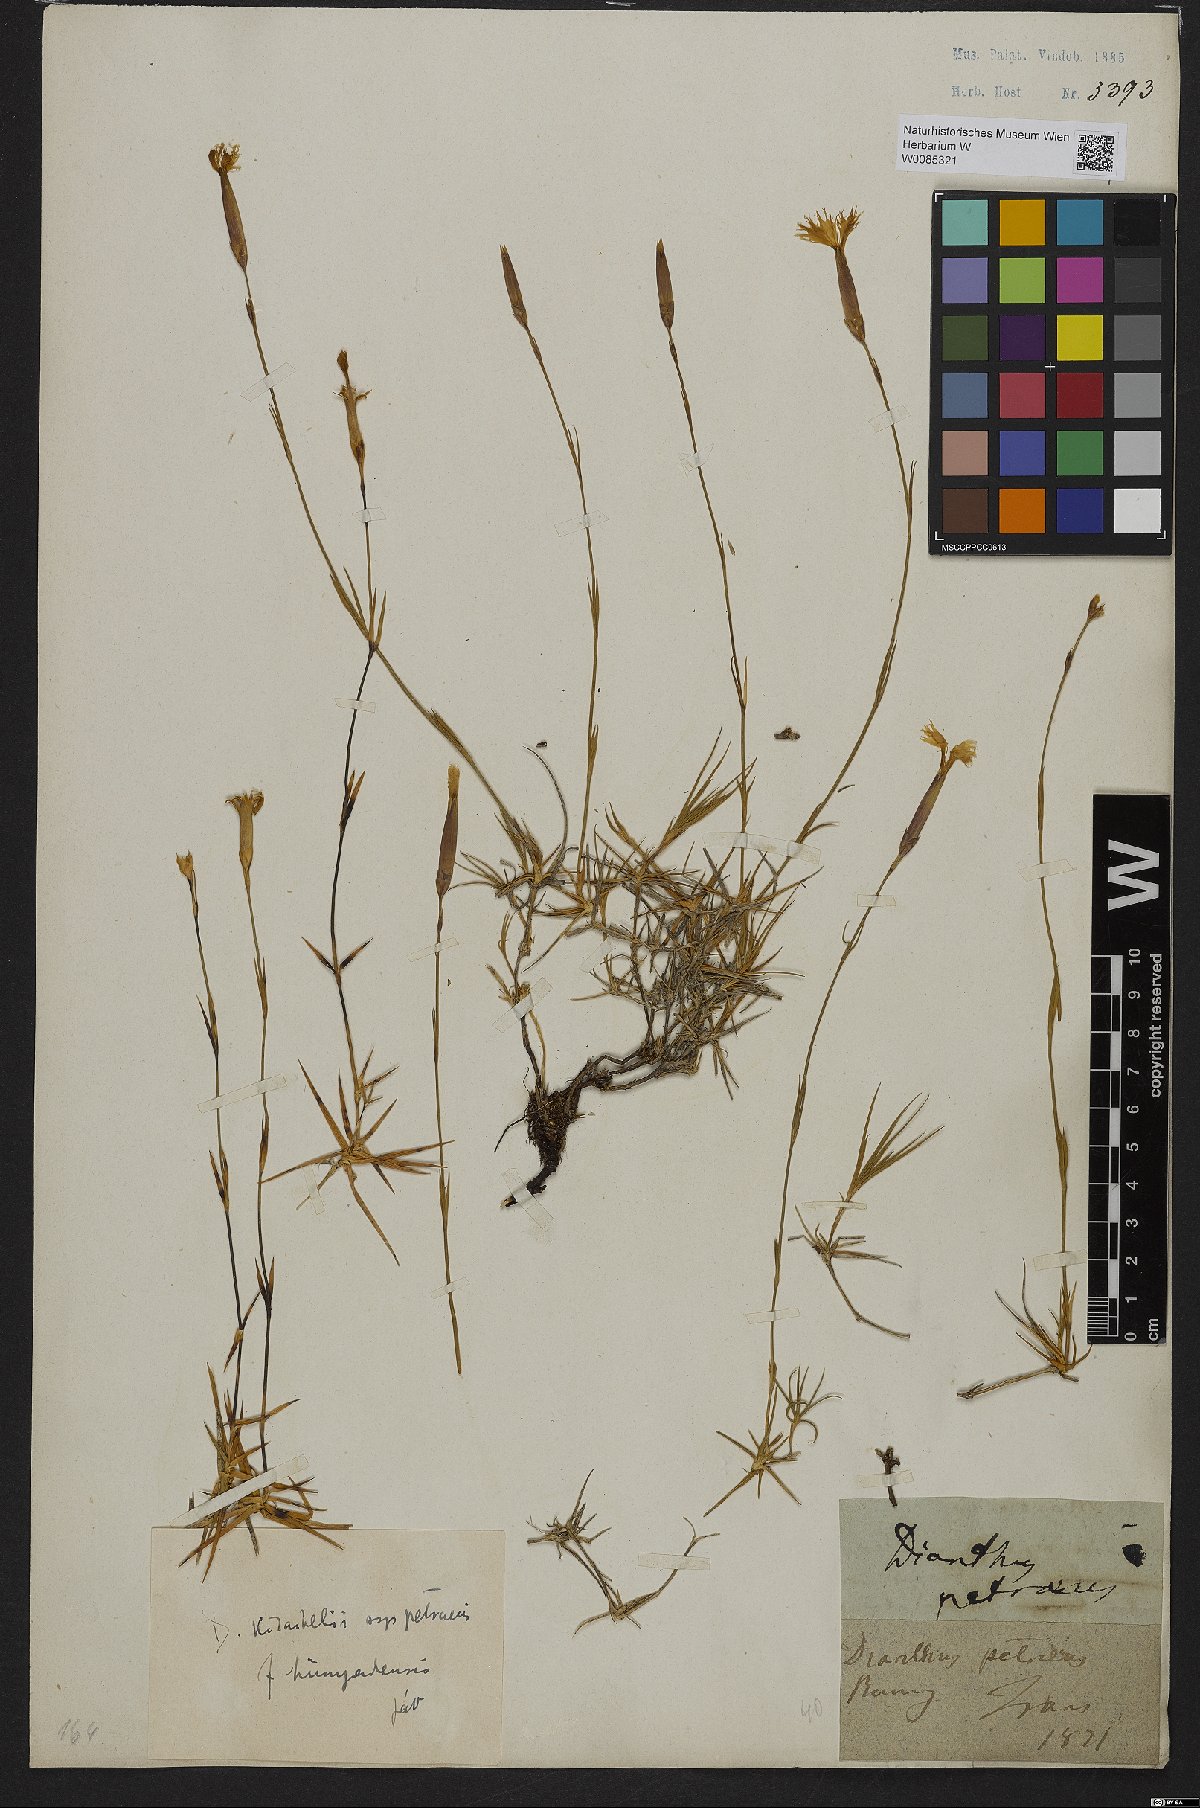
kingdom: Plantae
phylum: Tracheophyta
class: Magnoliopsida
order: Caryophyllales
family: Caryophyllaceae
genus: Dianthus
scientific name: Dianthus petraeus
